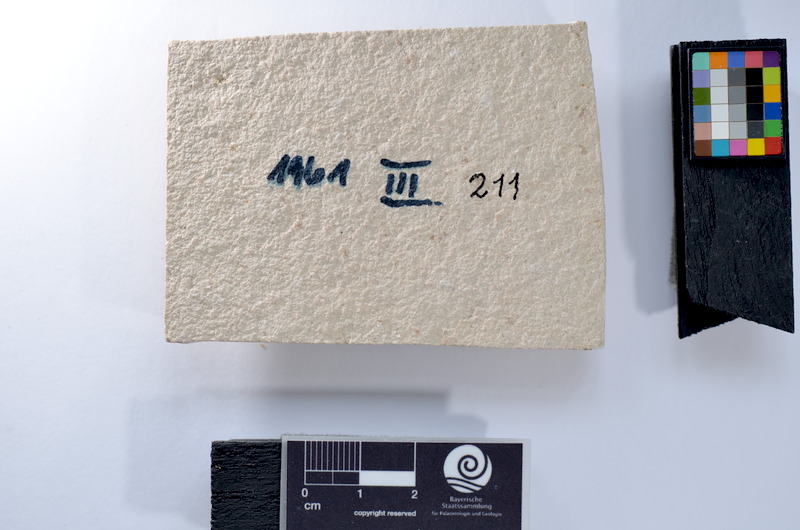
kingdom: Animalia
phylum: Chordata
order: Salmoniformes
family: Orthogonikleithridae
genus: Leptolepides
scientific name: Leptolepides
